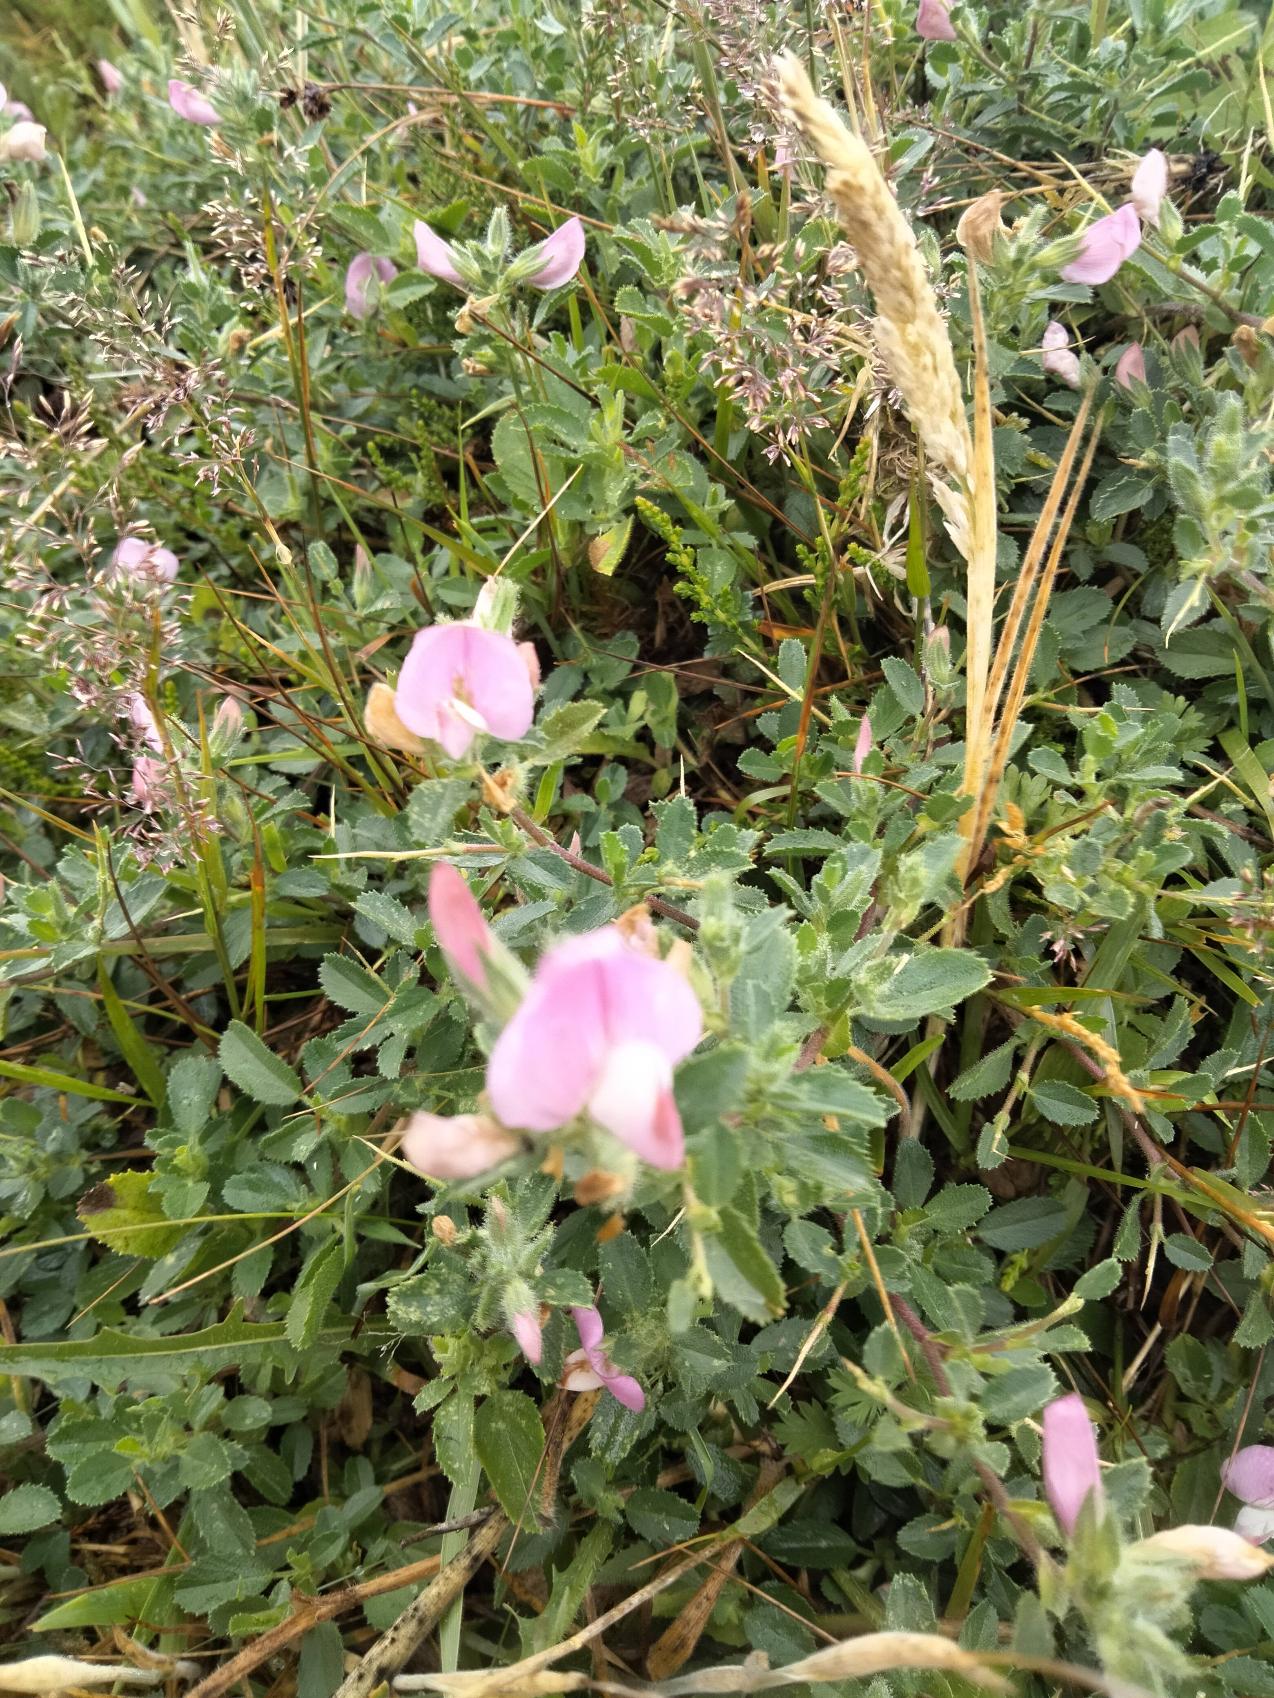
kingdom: Plantae
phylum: Tracheophyta
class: Magnoliopsida
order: Fabales
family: Fabaceae
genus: Ononis
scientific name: Ononis spinosa
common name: Mark-krageklo
